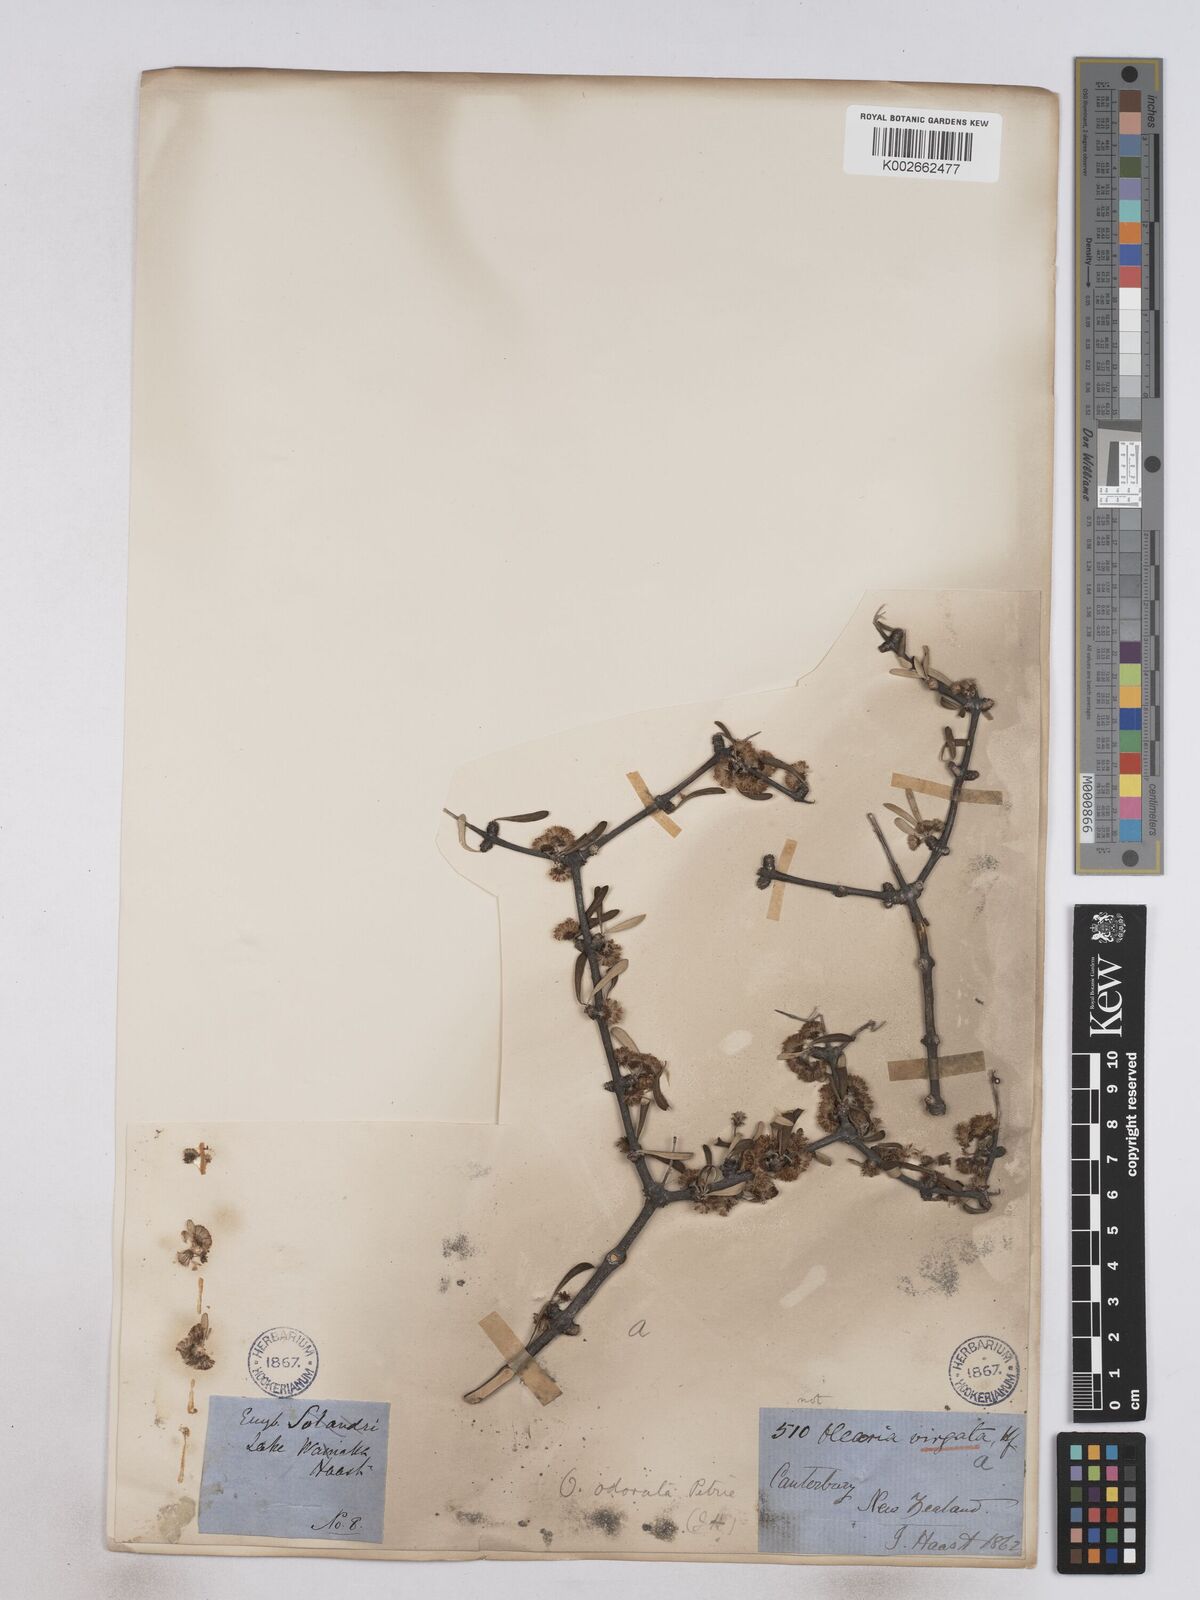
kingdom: Plantae
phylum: Tracheophyta
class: Magnoliopsida
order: Asterales
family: Asteraceae
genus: Olearia
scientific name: Olearia odorata
